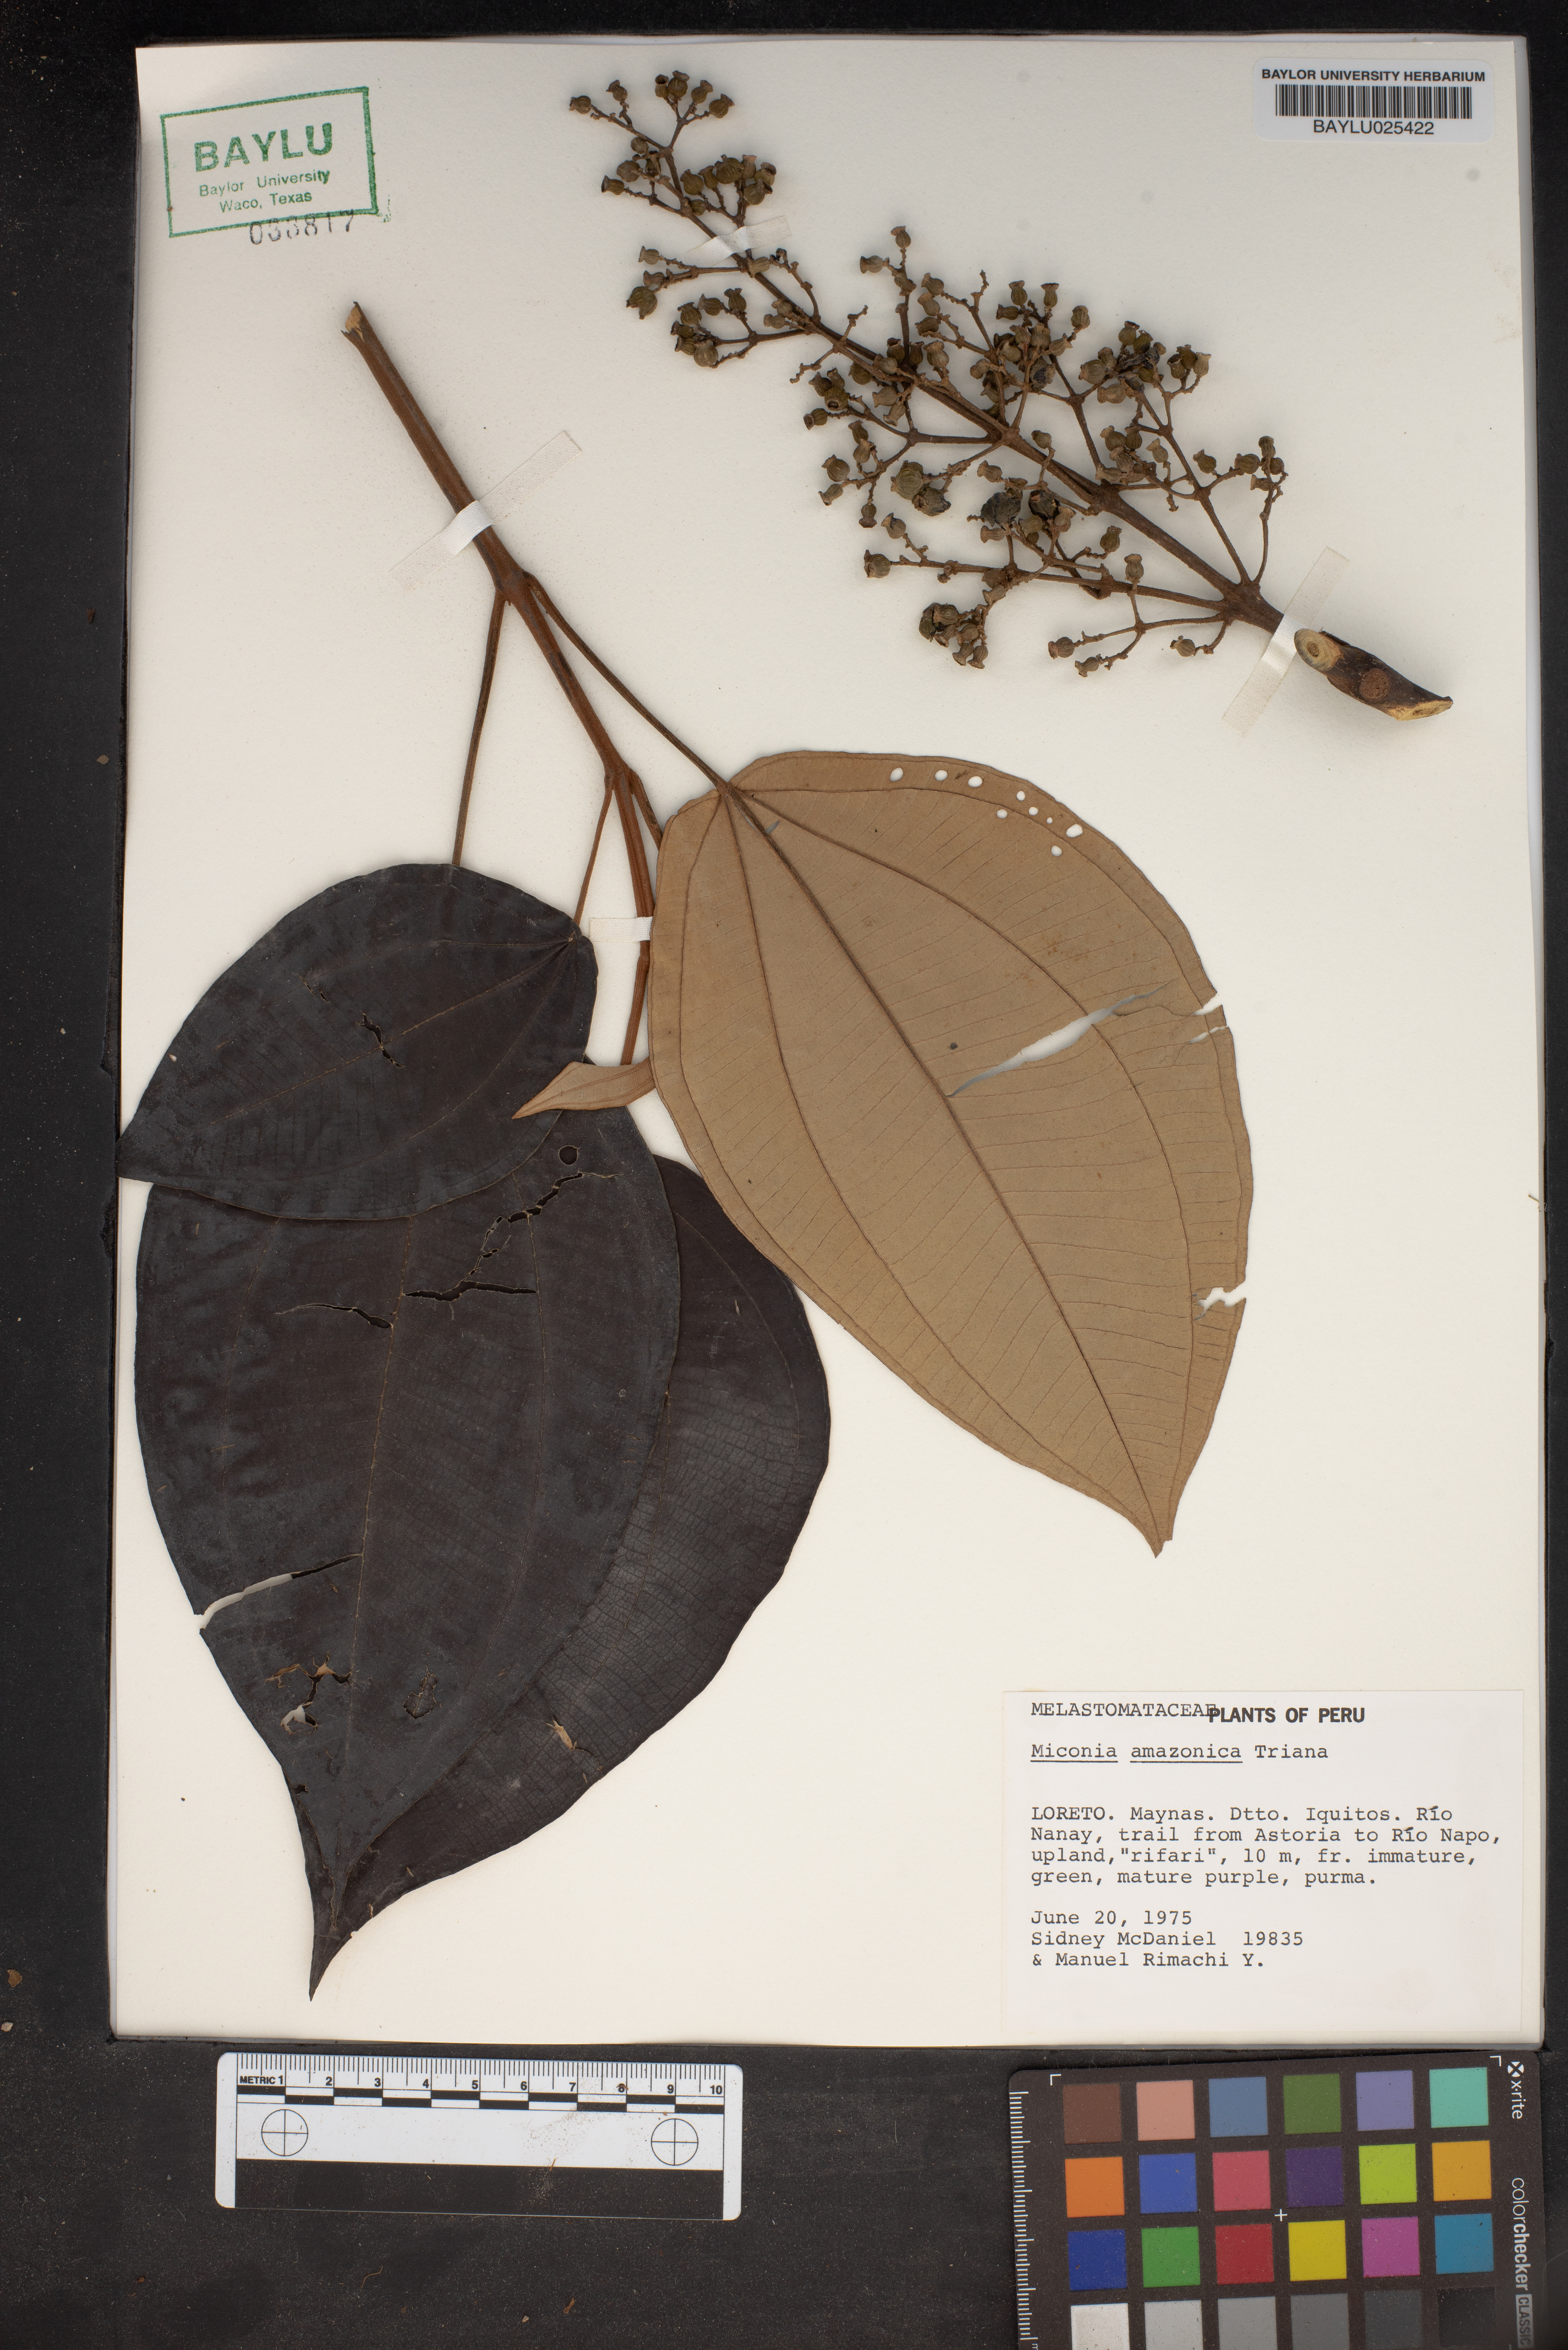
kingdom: Plantae
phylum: Tracheophyta
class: Magnoliopsida
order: Myrtales
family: Melastomataceae
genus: Miconia
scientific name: Miconia amazonica
